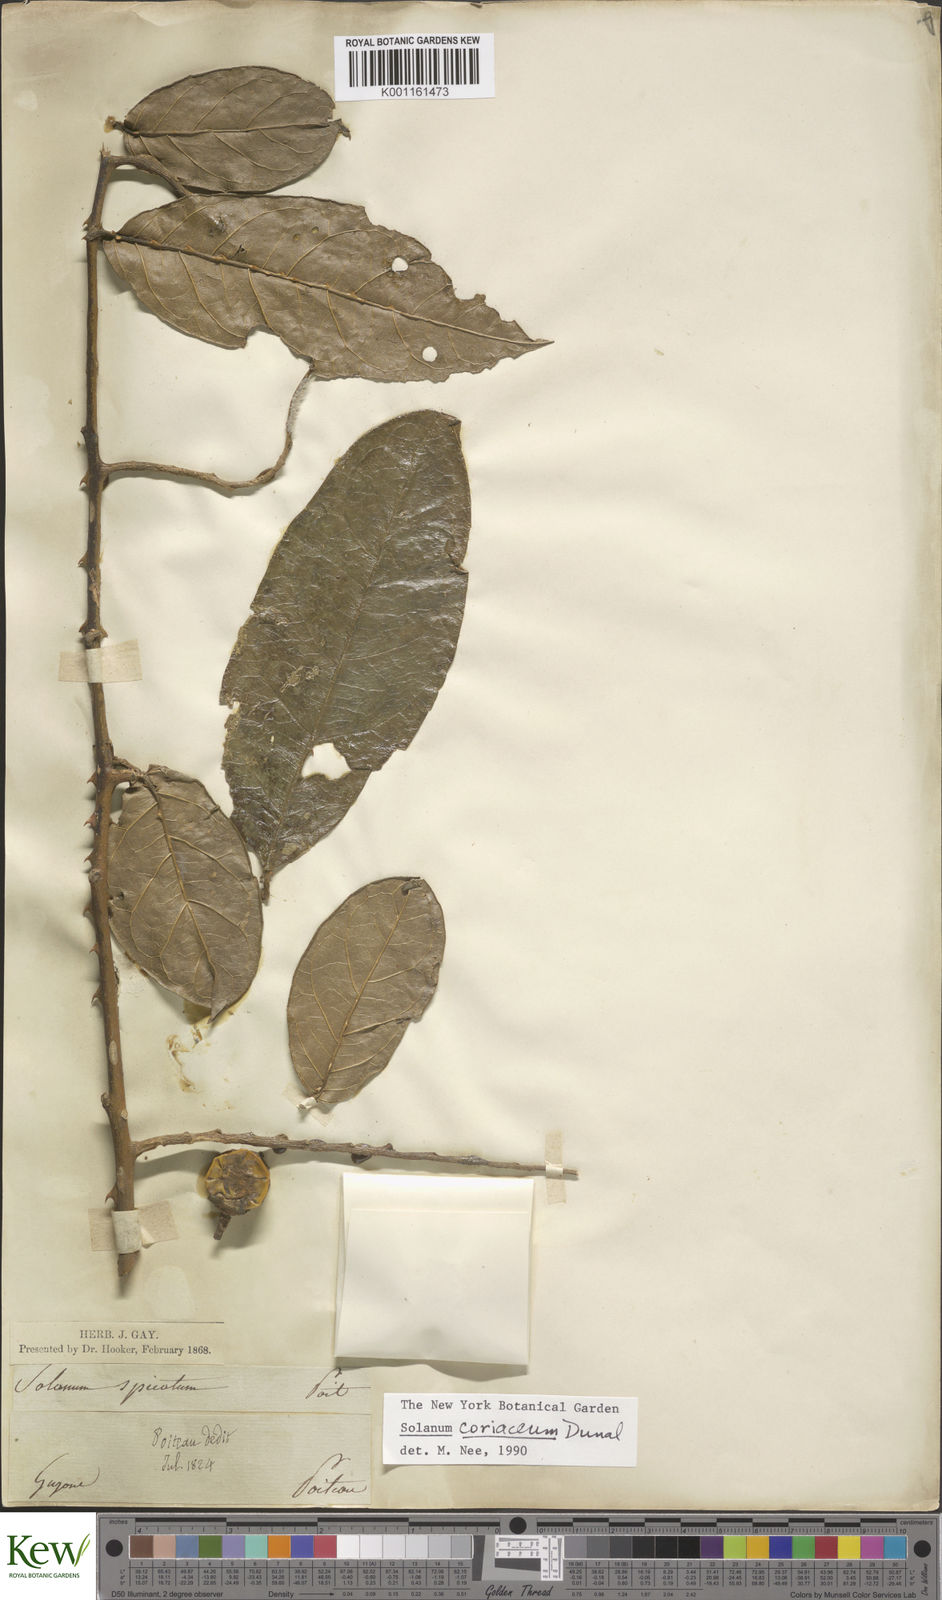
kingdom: Plantae
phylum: Tracheophyta
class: Magnoliopsida
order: Solanales
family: Solanaceae
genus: Solanum
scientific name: Solanum coriaceum
